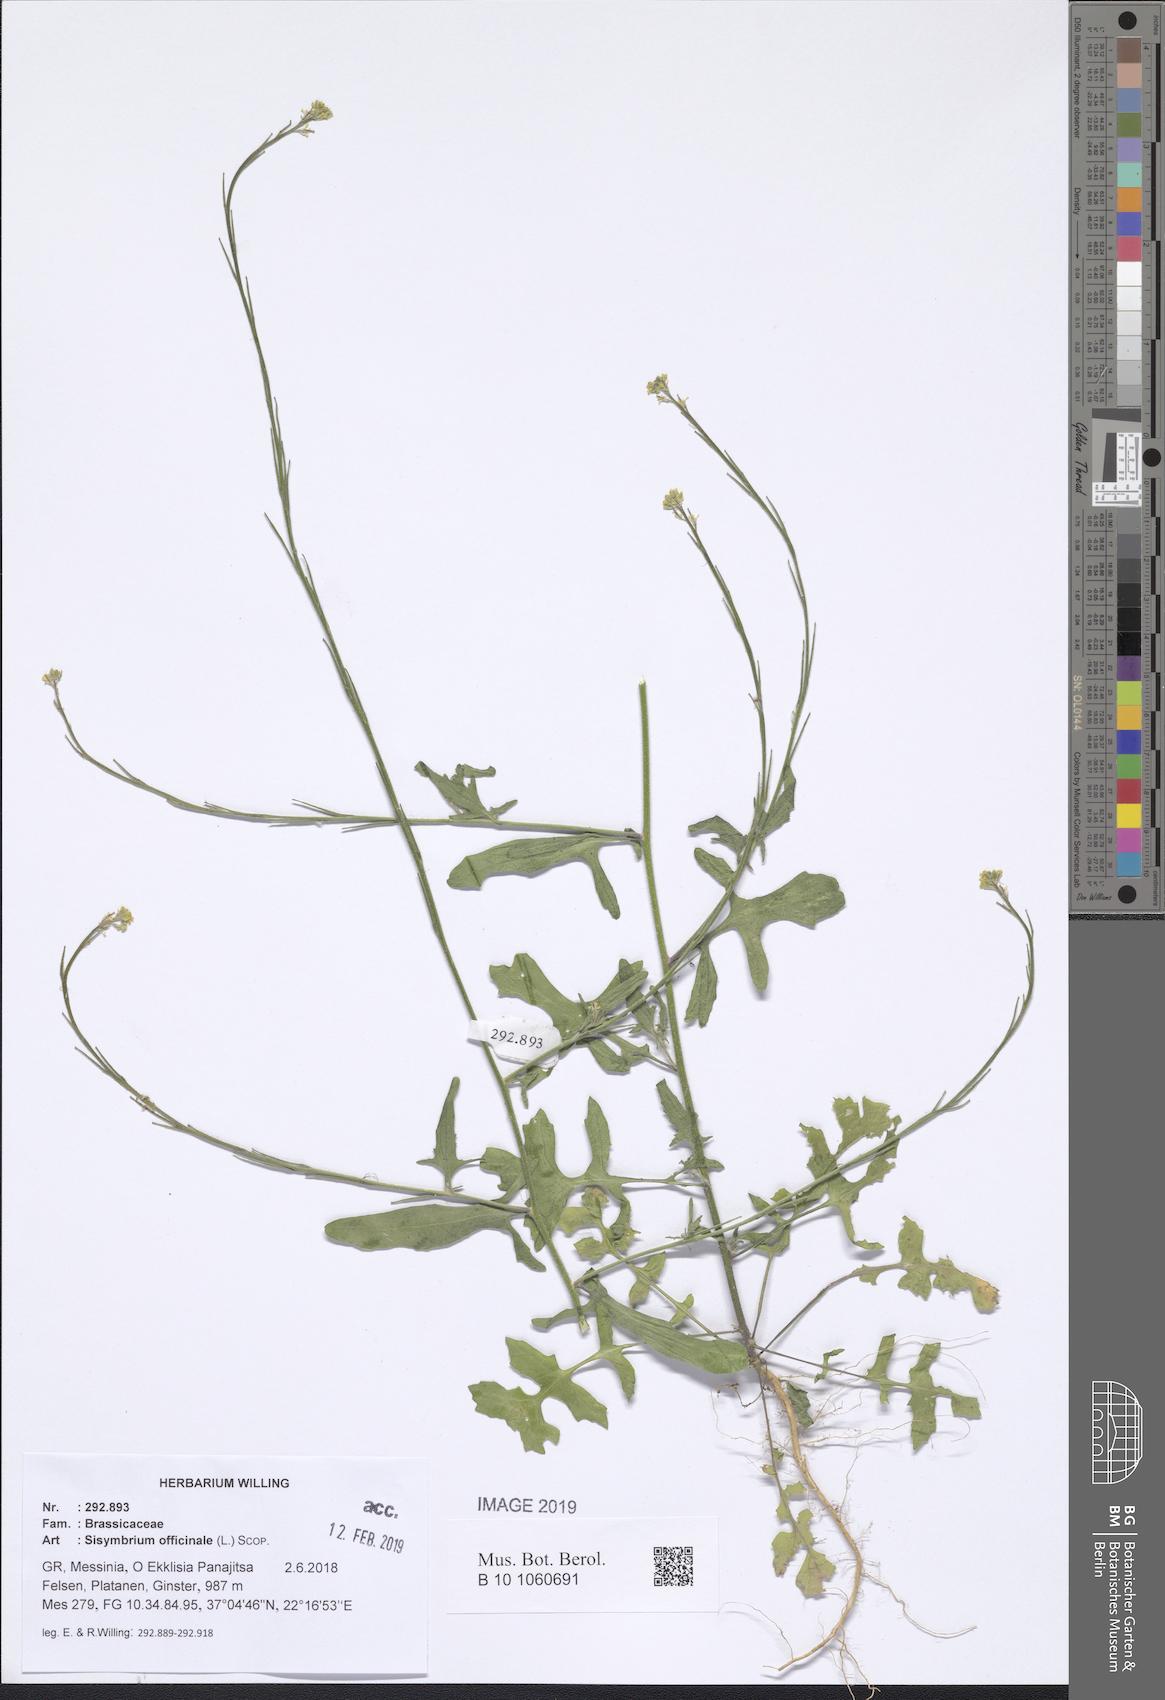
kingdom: Plantae
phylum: Tracheophyta
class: Magnoliopsida
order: Brassicales
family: Brassicaceae
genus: Sisymbrium
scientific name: Sisymbrium officinale
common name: Hedge mustard
